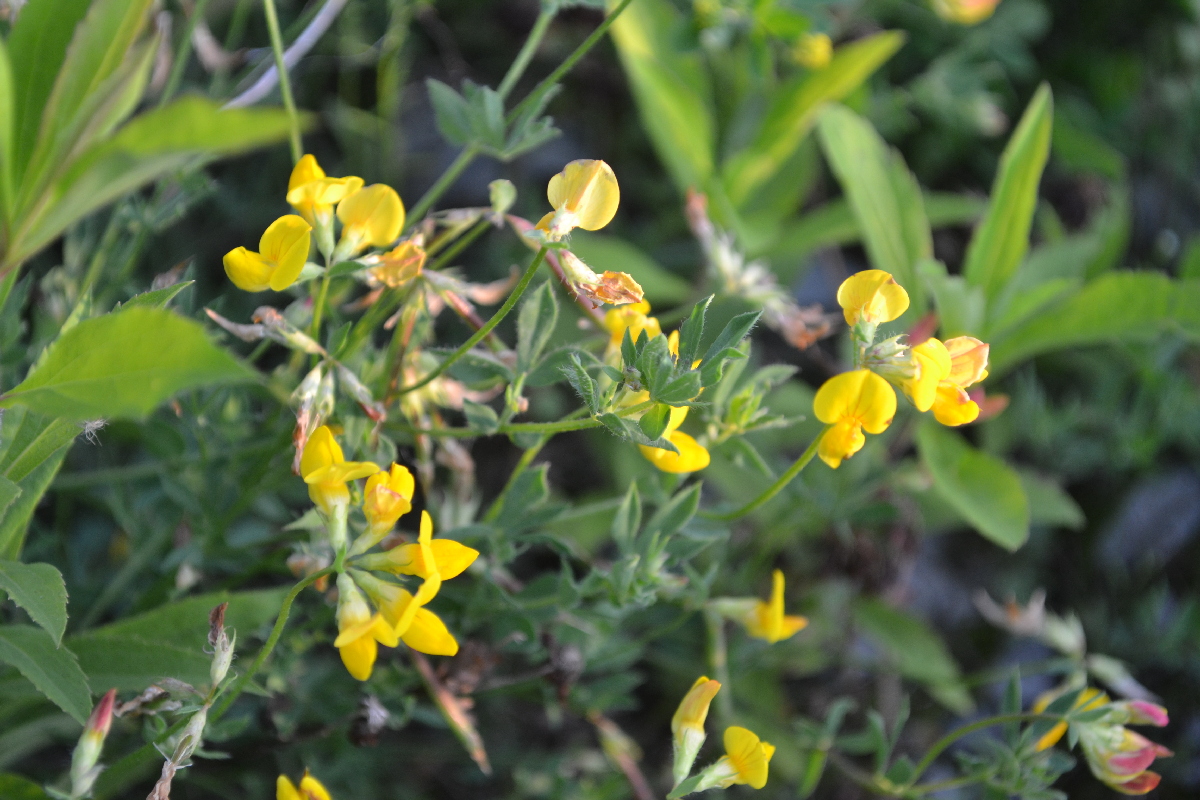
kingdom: Plantae
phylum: Tracheophyta
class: Magnoliopsida
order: Fabales
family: Fabaceae
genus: Lotus
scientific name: Lotus corniculatus
